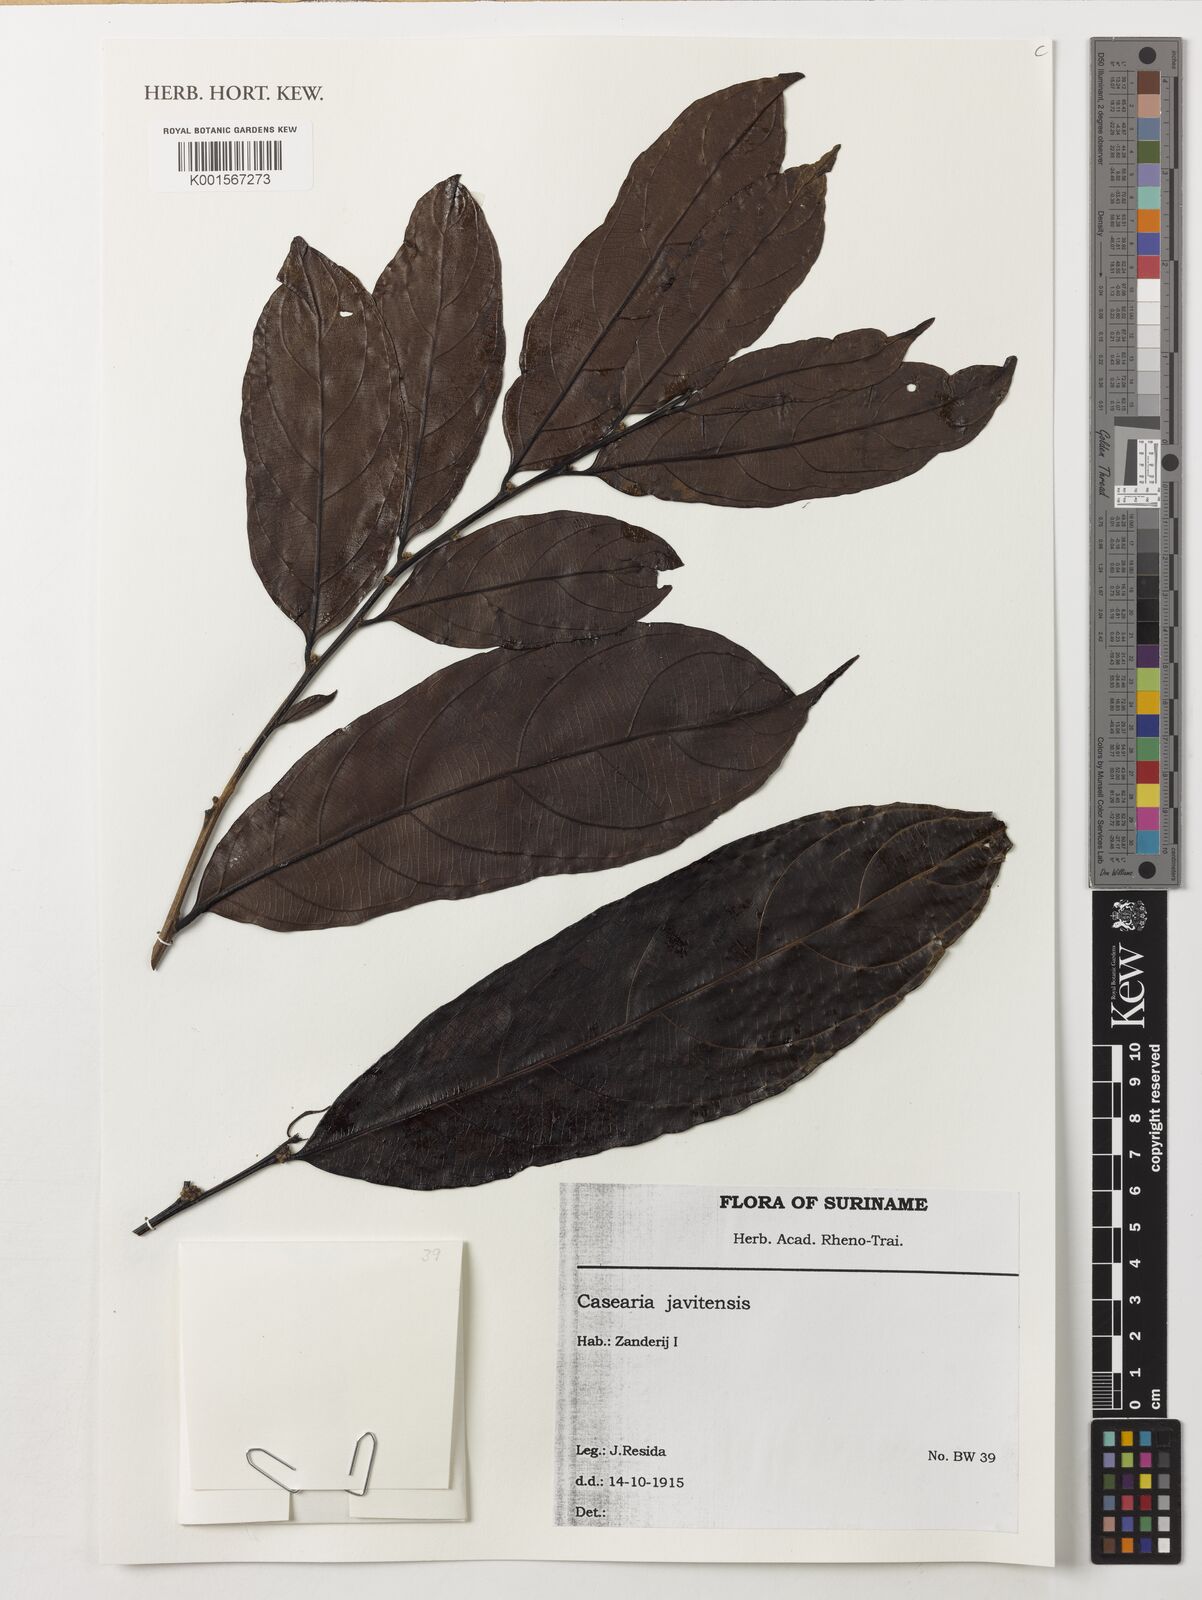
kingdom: Plantae
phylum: Tracheophyta
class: Magnoliopsida
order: Malpighiales
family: Salicaceae
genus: Piparea
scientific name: Piparea multiflora
